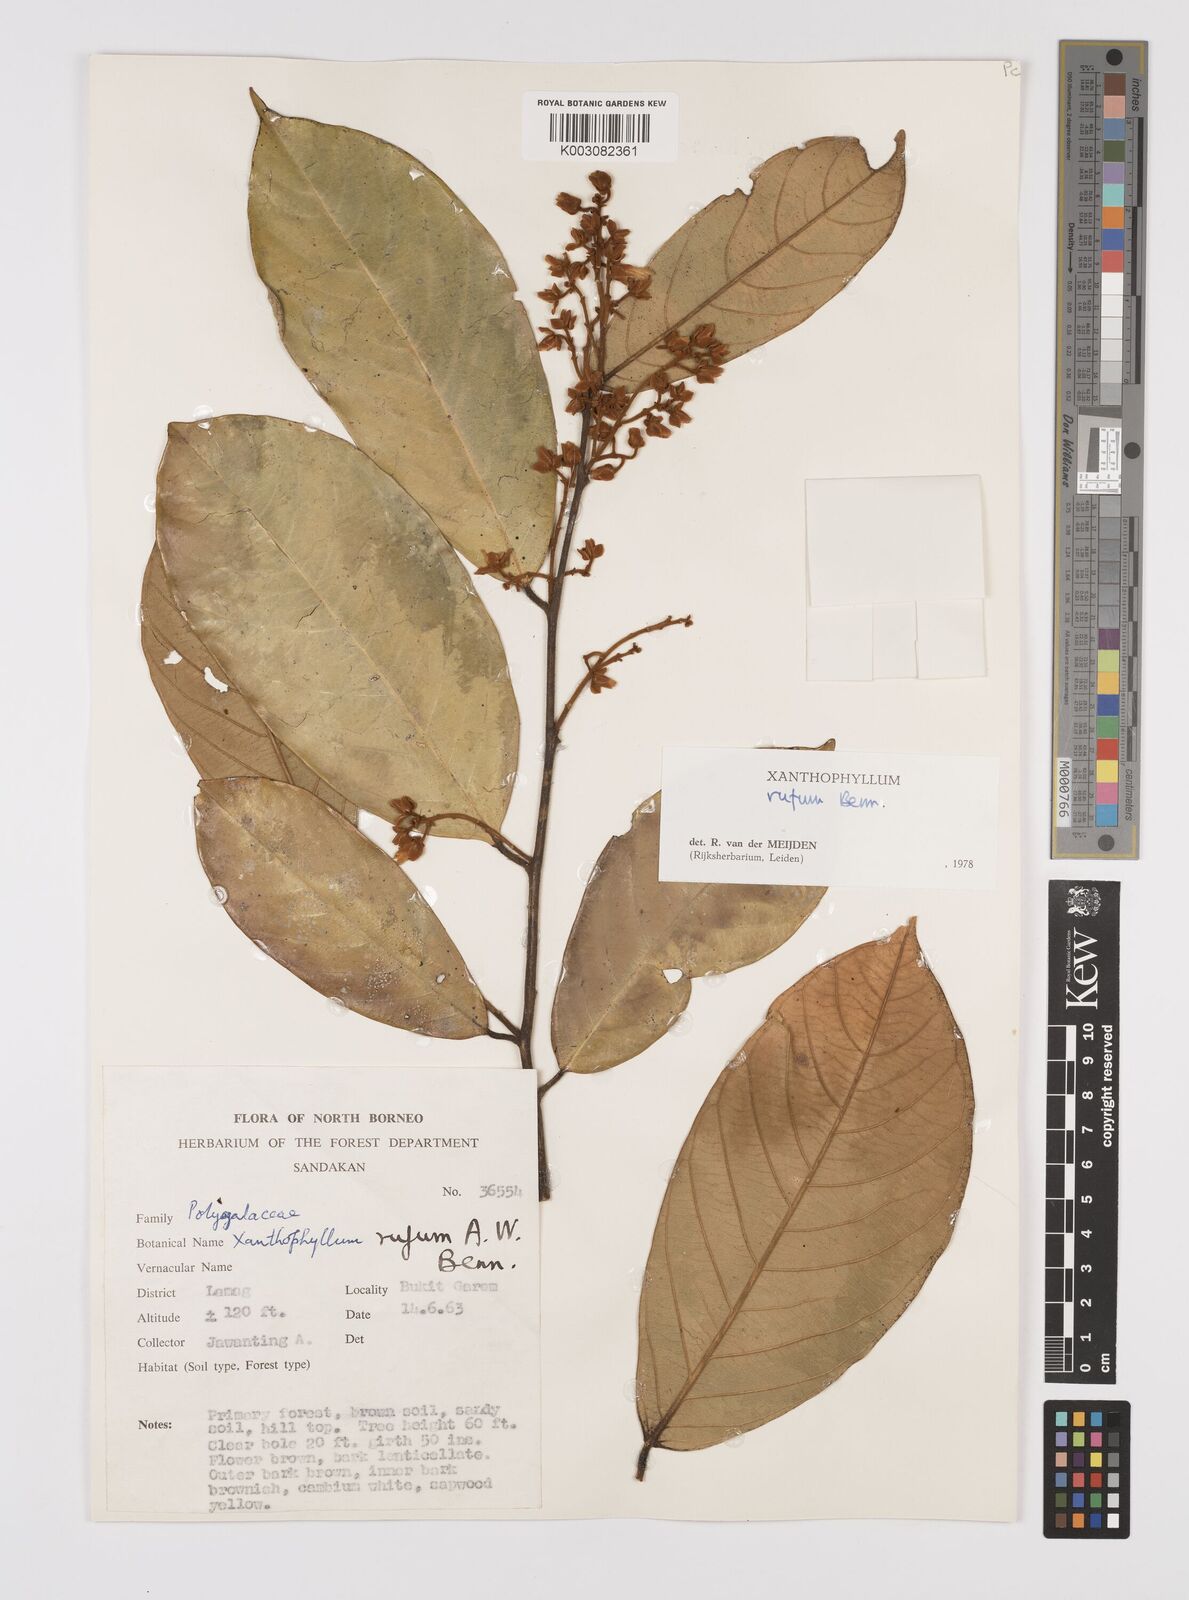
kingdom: Plantae
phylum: Tracheophyta
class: Magnoliopsida
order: Fabales
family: Polygalaceae
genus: Xanthophyllum
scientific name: Xanthophyllum rufum
